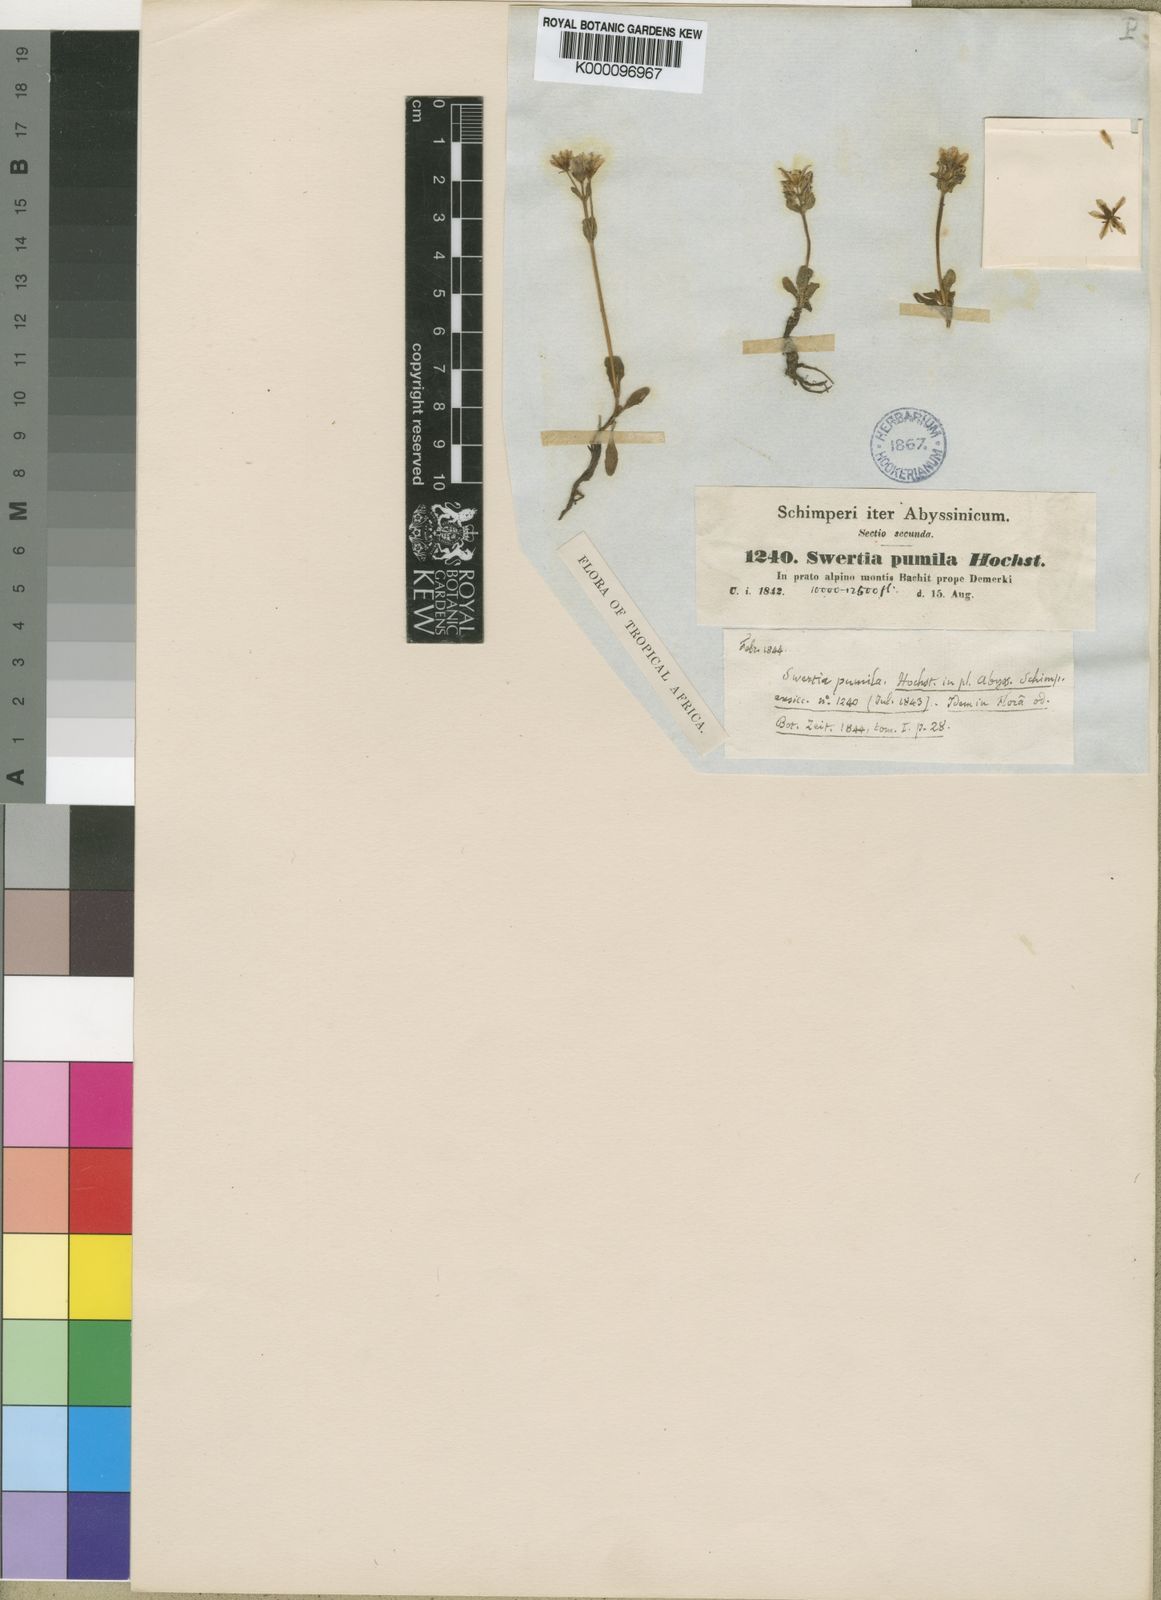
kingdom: Plantae
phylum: Tracheophyta
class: Magnoliopsida
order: Gentianales
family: Gentianaceae
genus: Swertia
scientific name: Swertia pumila
